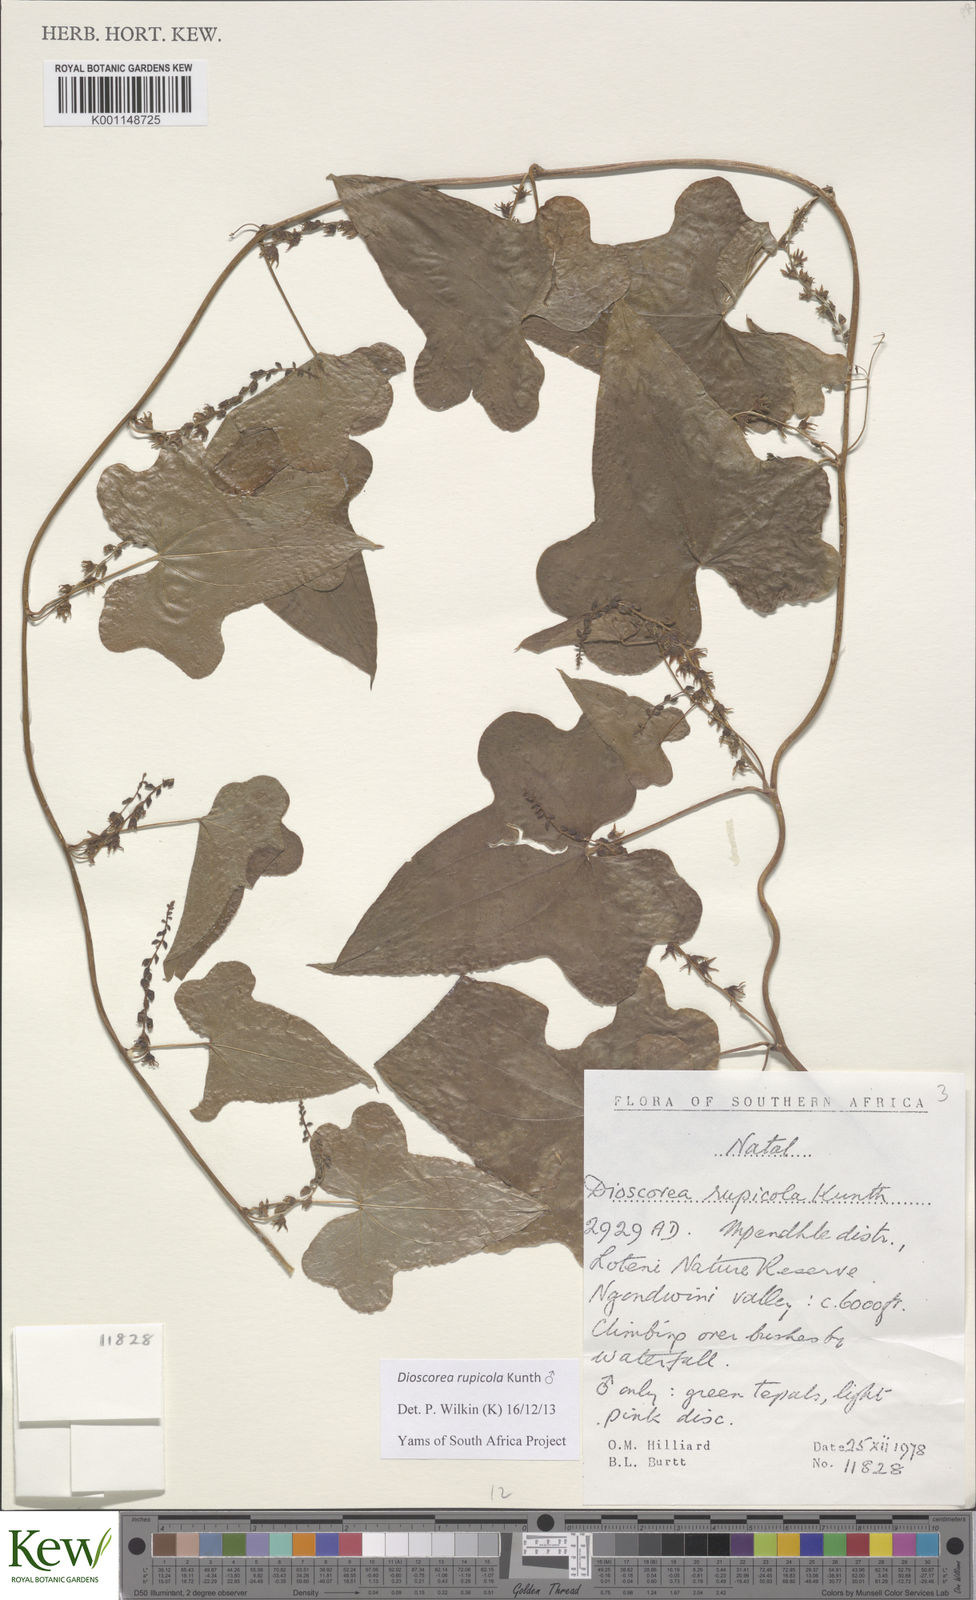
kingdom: Plantae
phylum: Tracheophyta
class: Liliopsida
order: Dioscoreales
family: Dioscoreaceae
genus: Dioscorea
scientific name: Dioscorea rupicola
